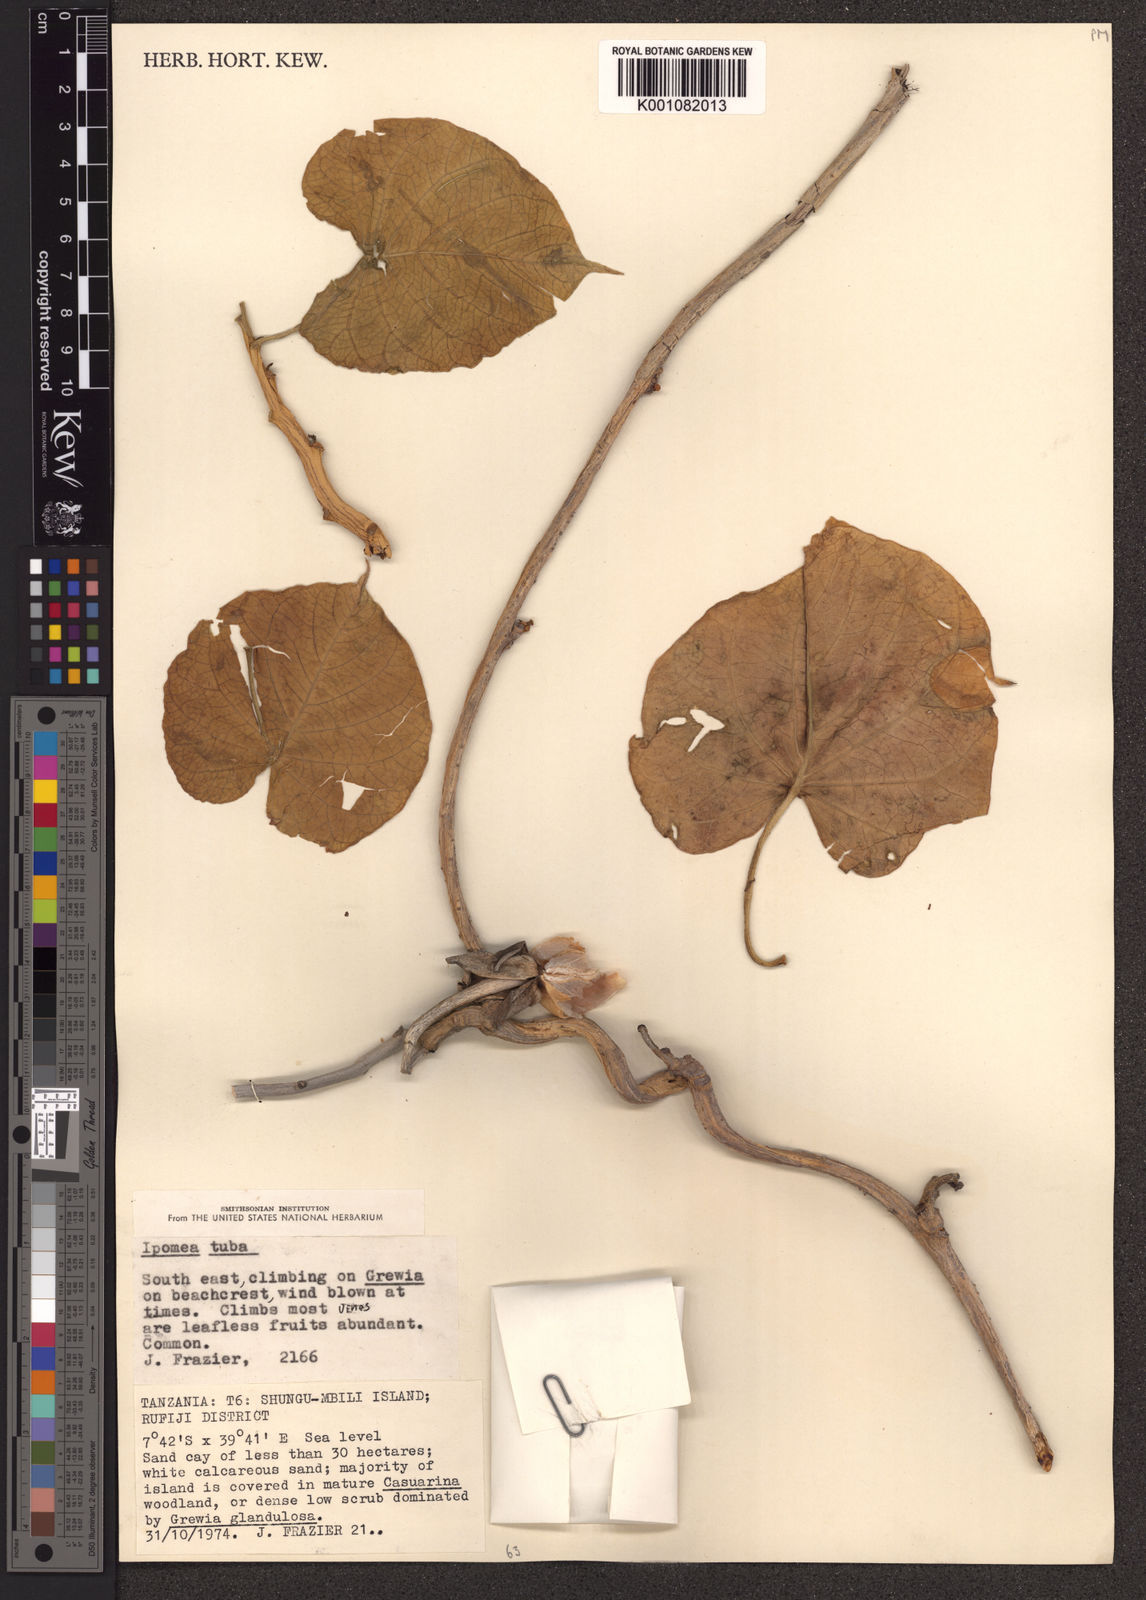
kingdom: Plantae
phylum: Tracheophyta
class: Magnoliopsida
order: Solanales
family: Convolvulaceae
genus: Ipomoea
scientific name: Ipomoea violacea
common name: Beach moonflower
